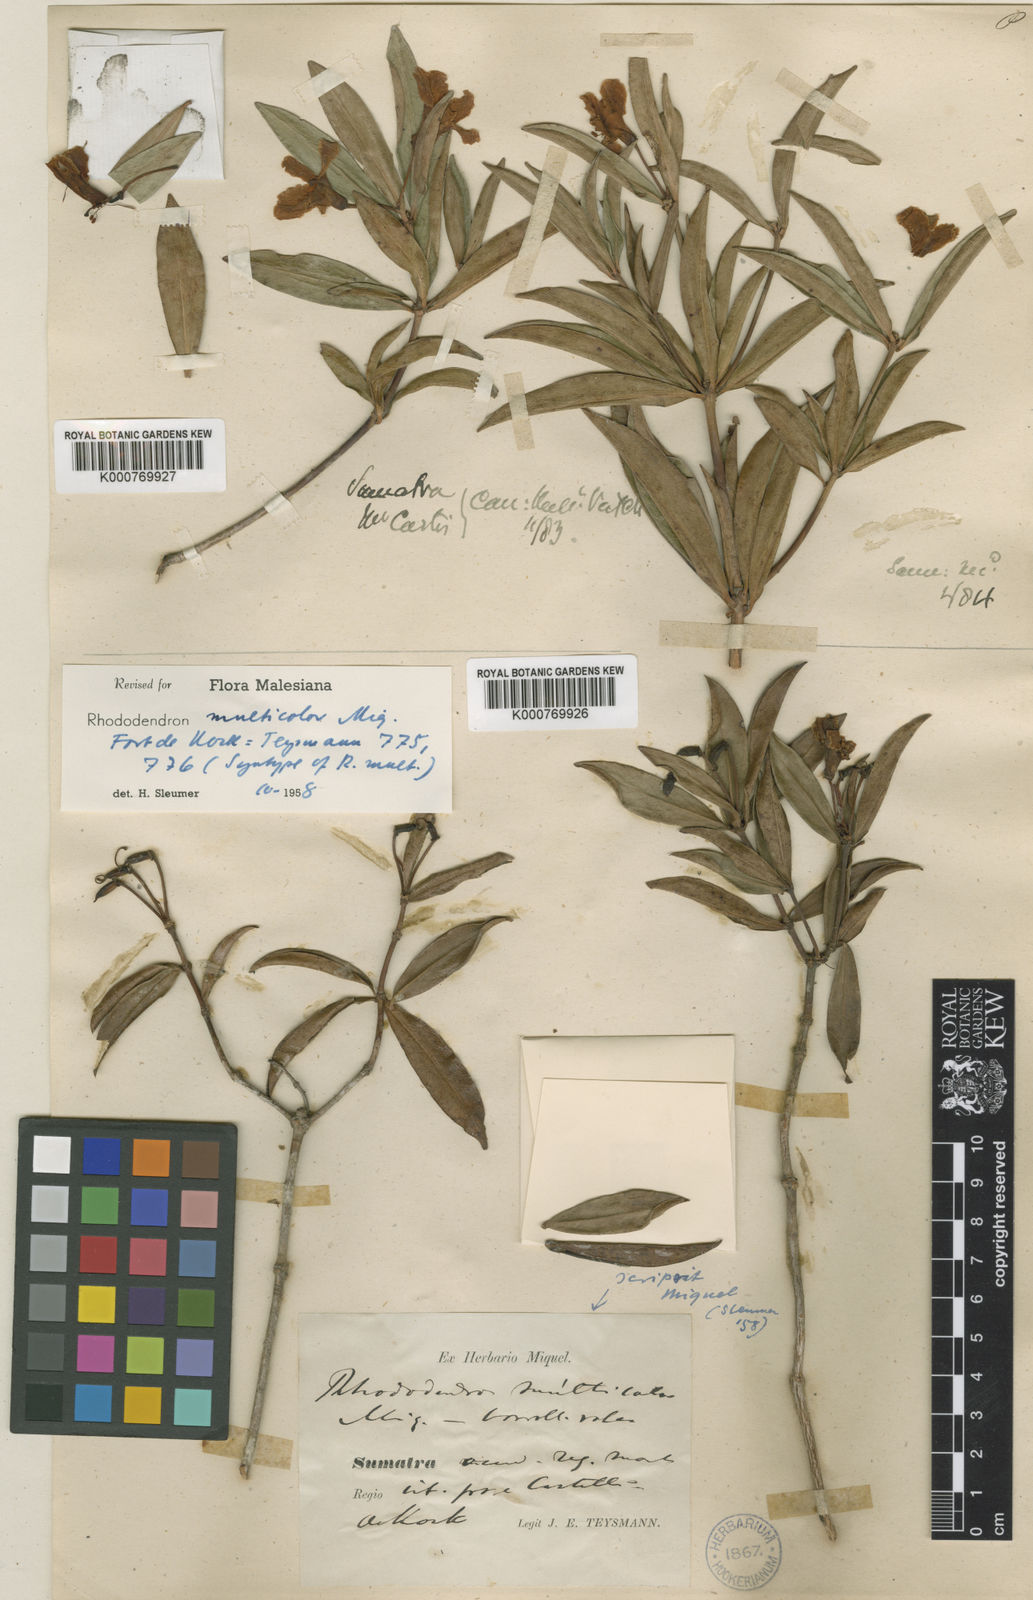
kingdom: Plantae
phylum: Tracheophyta
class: Magnoliopsida
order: Ericales
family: Ericaceae
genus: Rhododendron
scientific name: Rhododendron multicolor
